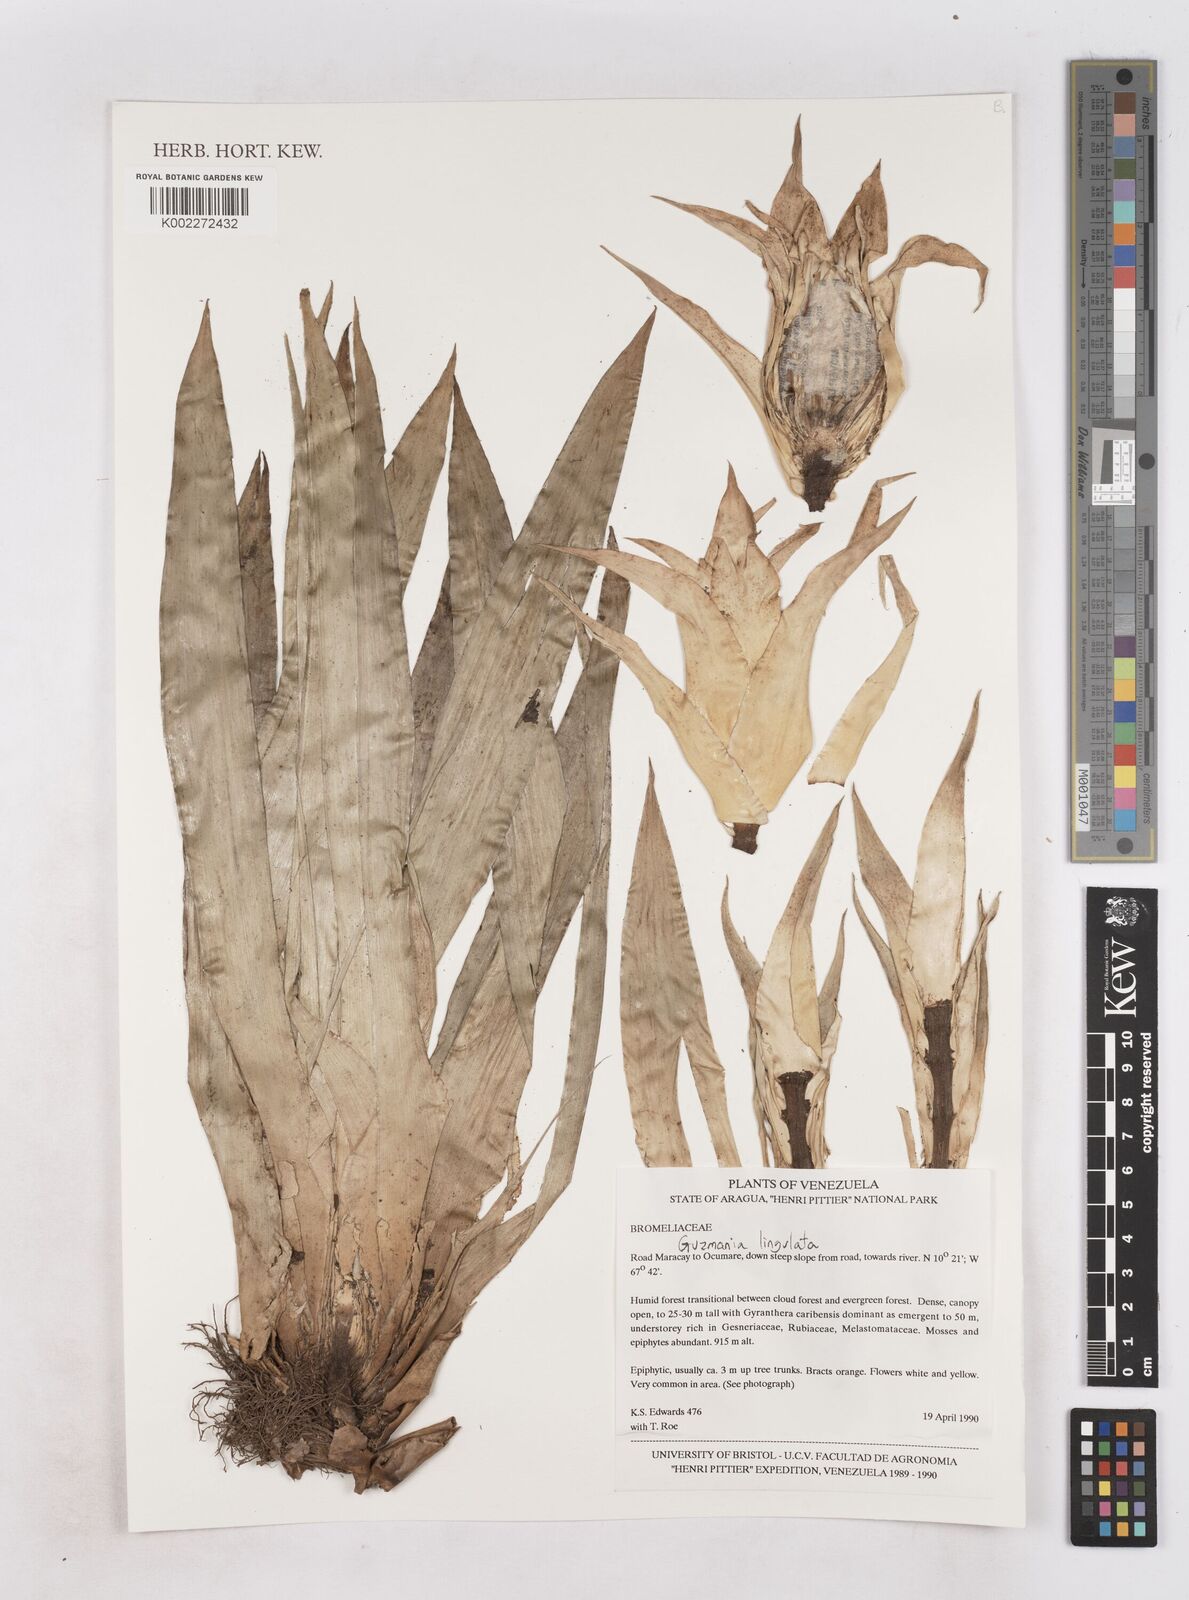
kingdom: Plantae
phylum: Tracheophyta
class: Liliopsida
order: Poales
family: Bromeliaceae
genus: Guzmania
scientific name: Guzmania lingulata
